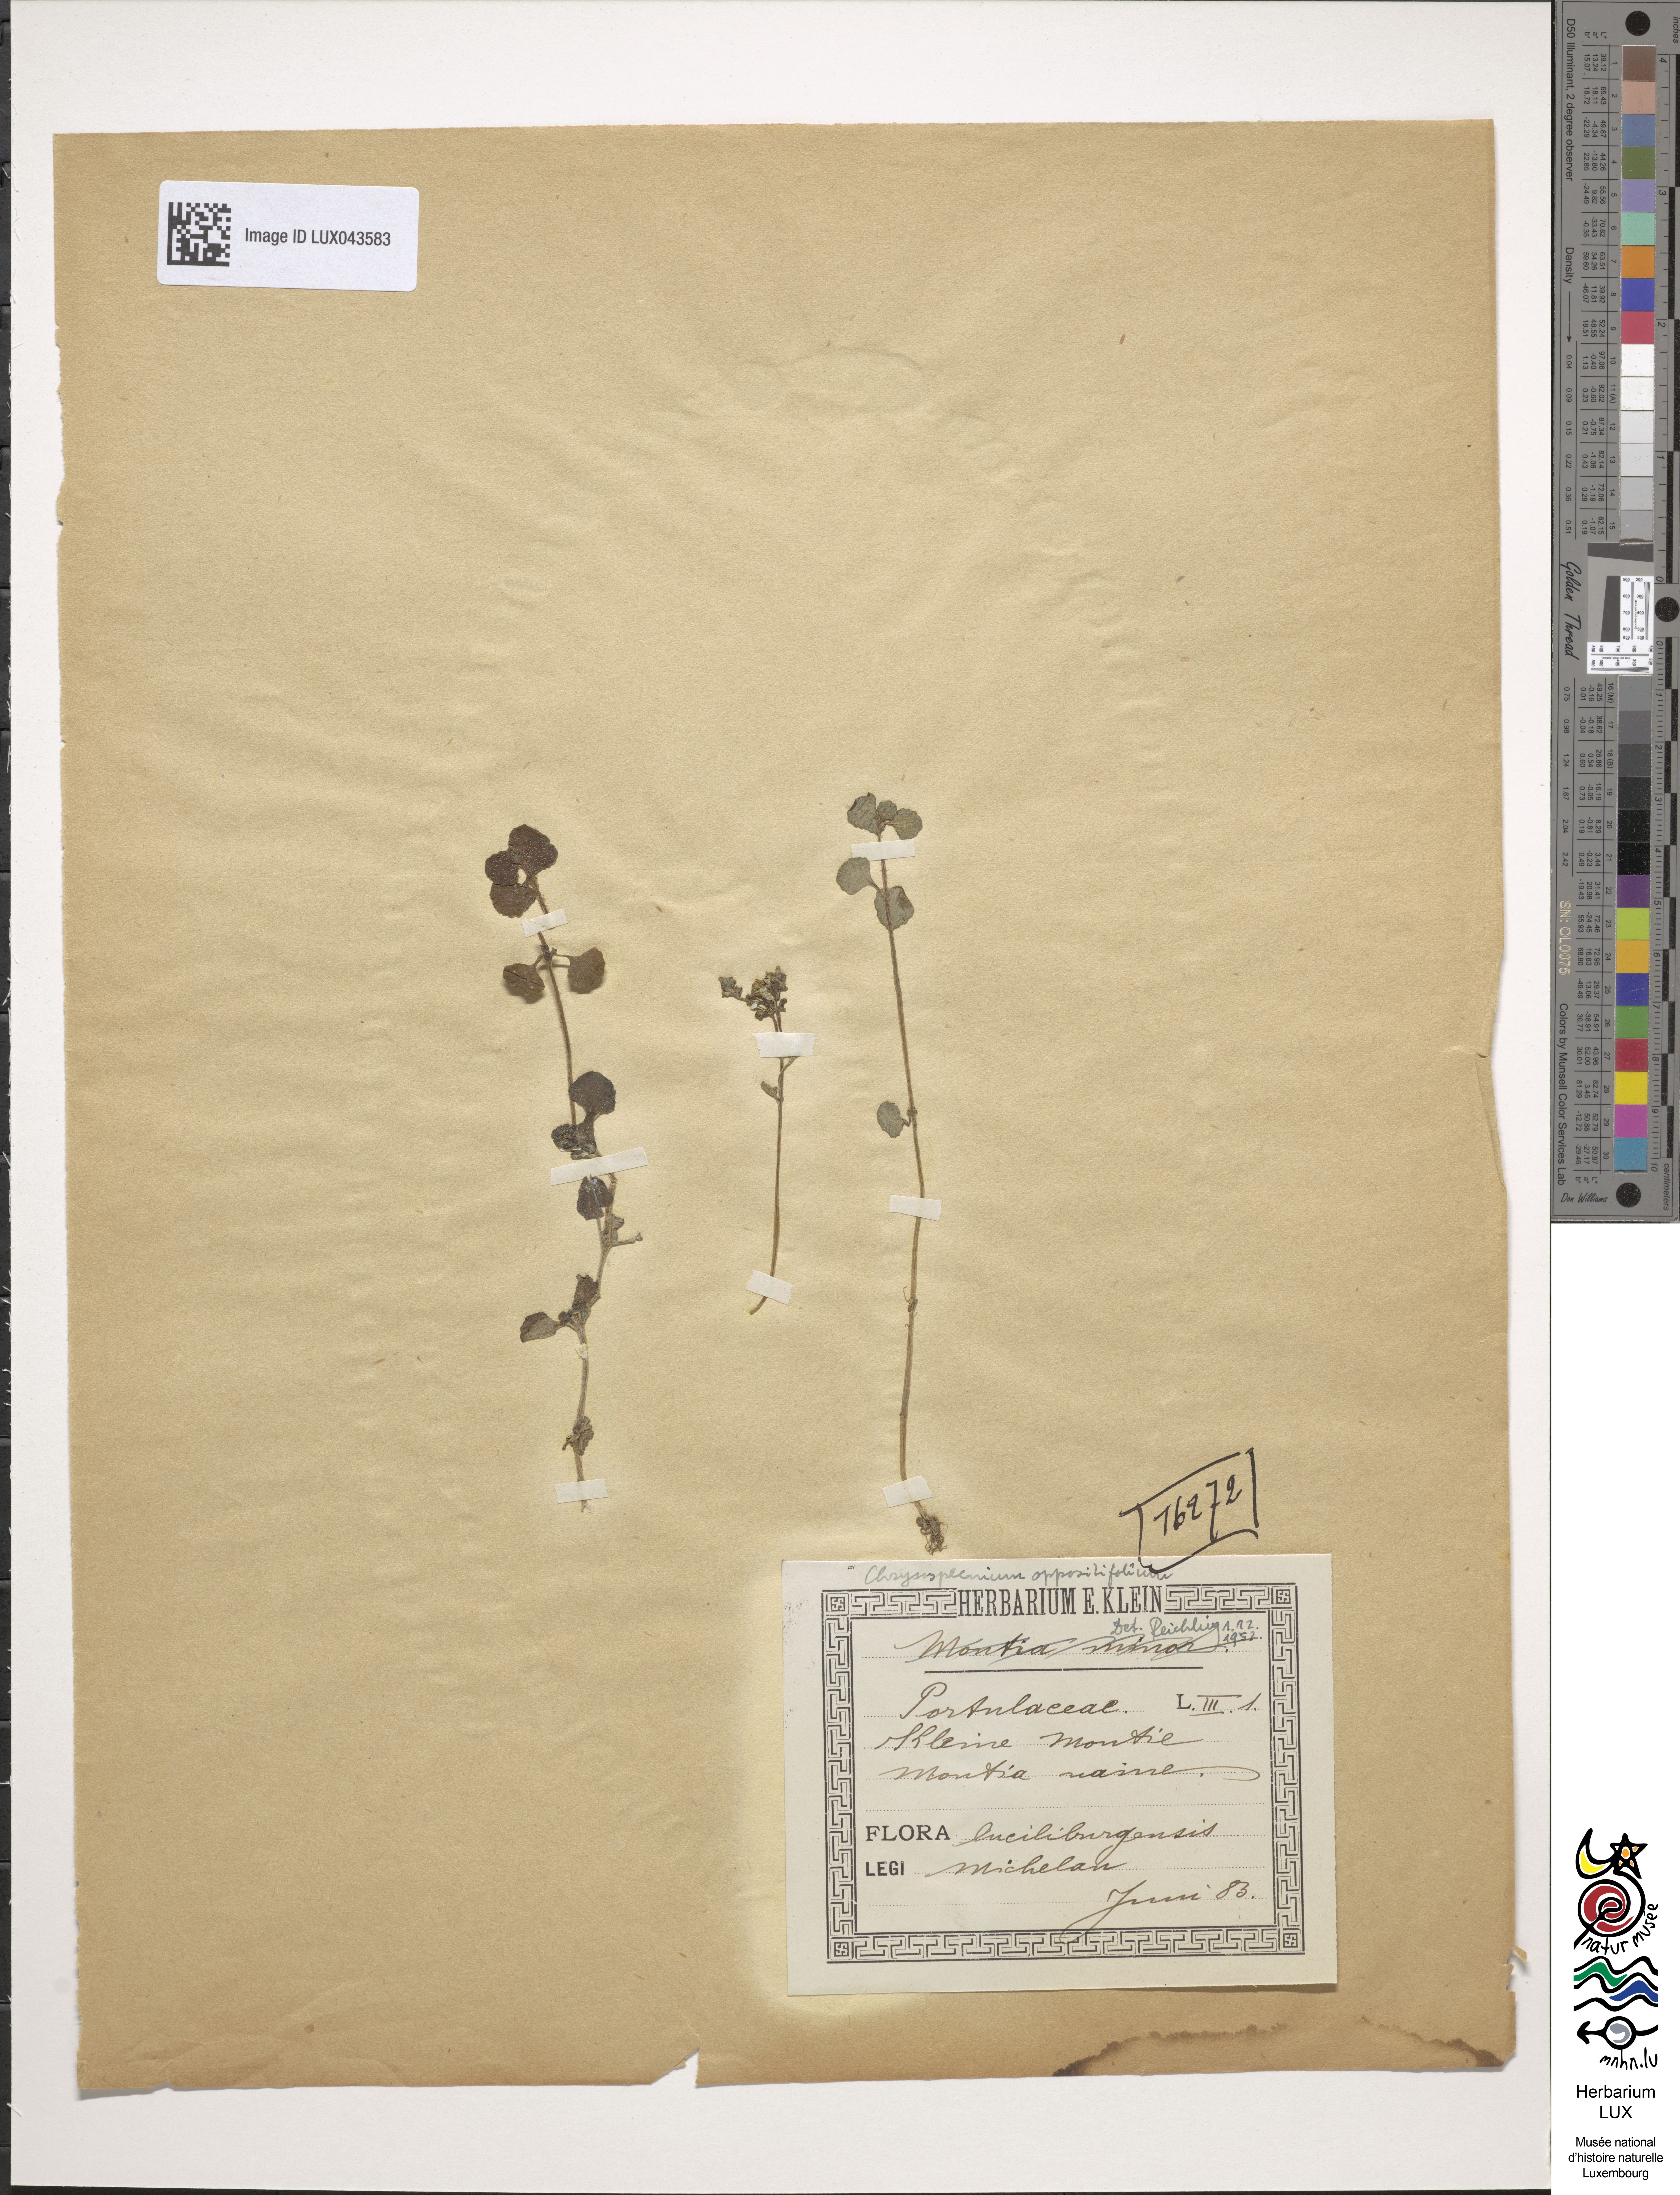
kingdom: Plantae
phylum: Tracheophyta
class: Magnoliopsida
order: Caryophyllales
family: Montiaceae
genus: Montia
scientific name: Montia arvensis
